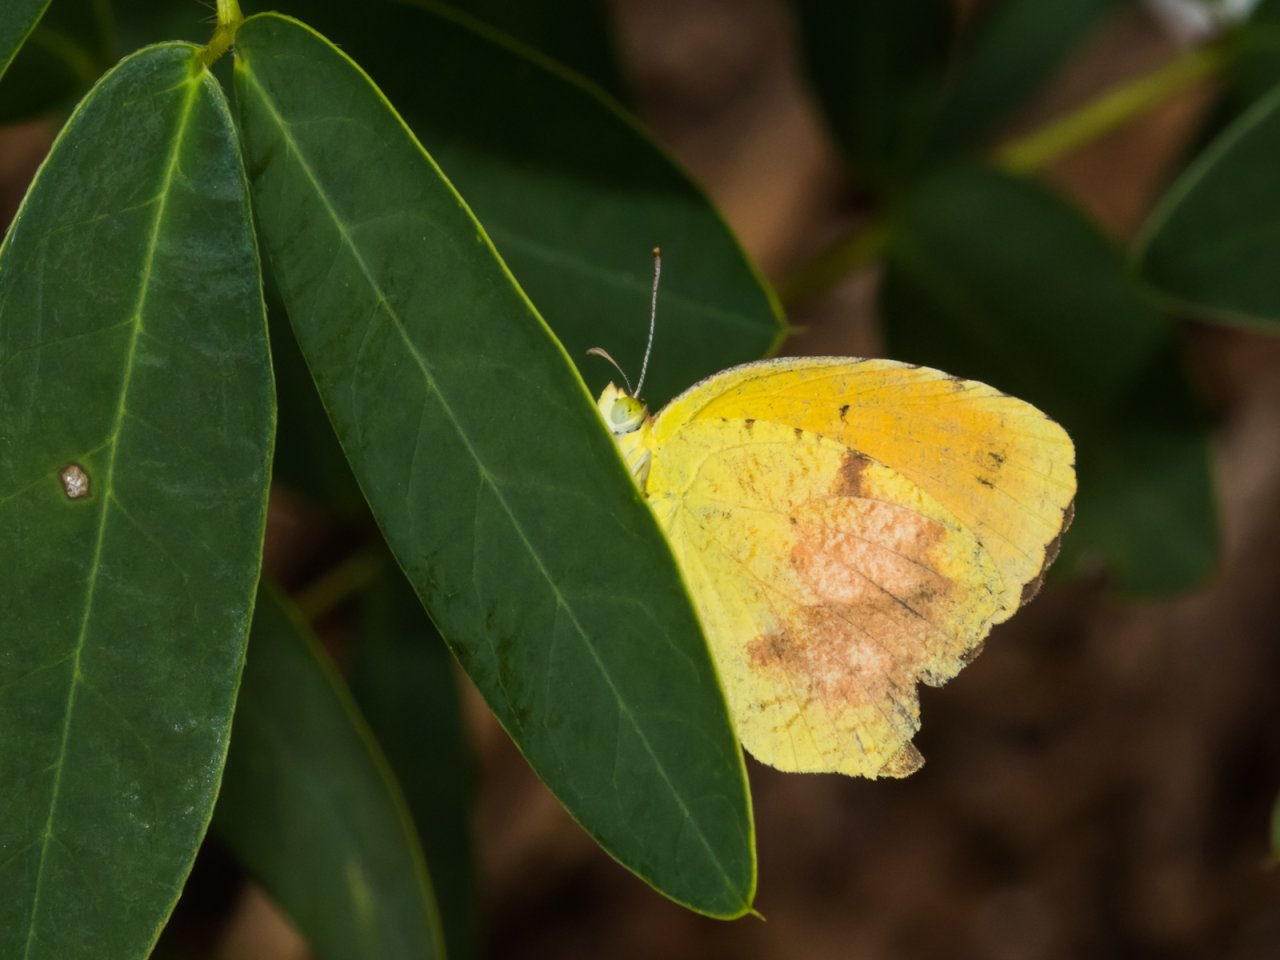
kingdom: Animalia
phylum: Arthropoda
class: Insecta
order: Lepidoptera
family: Pieridae
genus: Abaeis
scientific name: Abaeis nicippe
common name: Sleepy Orange
